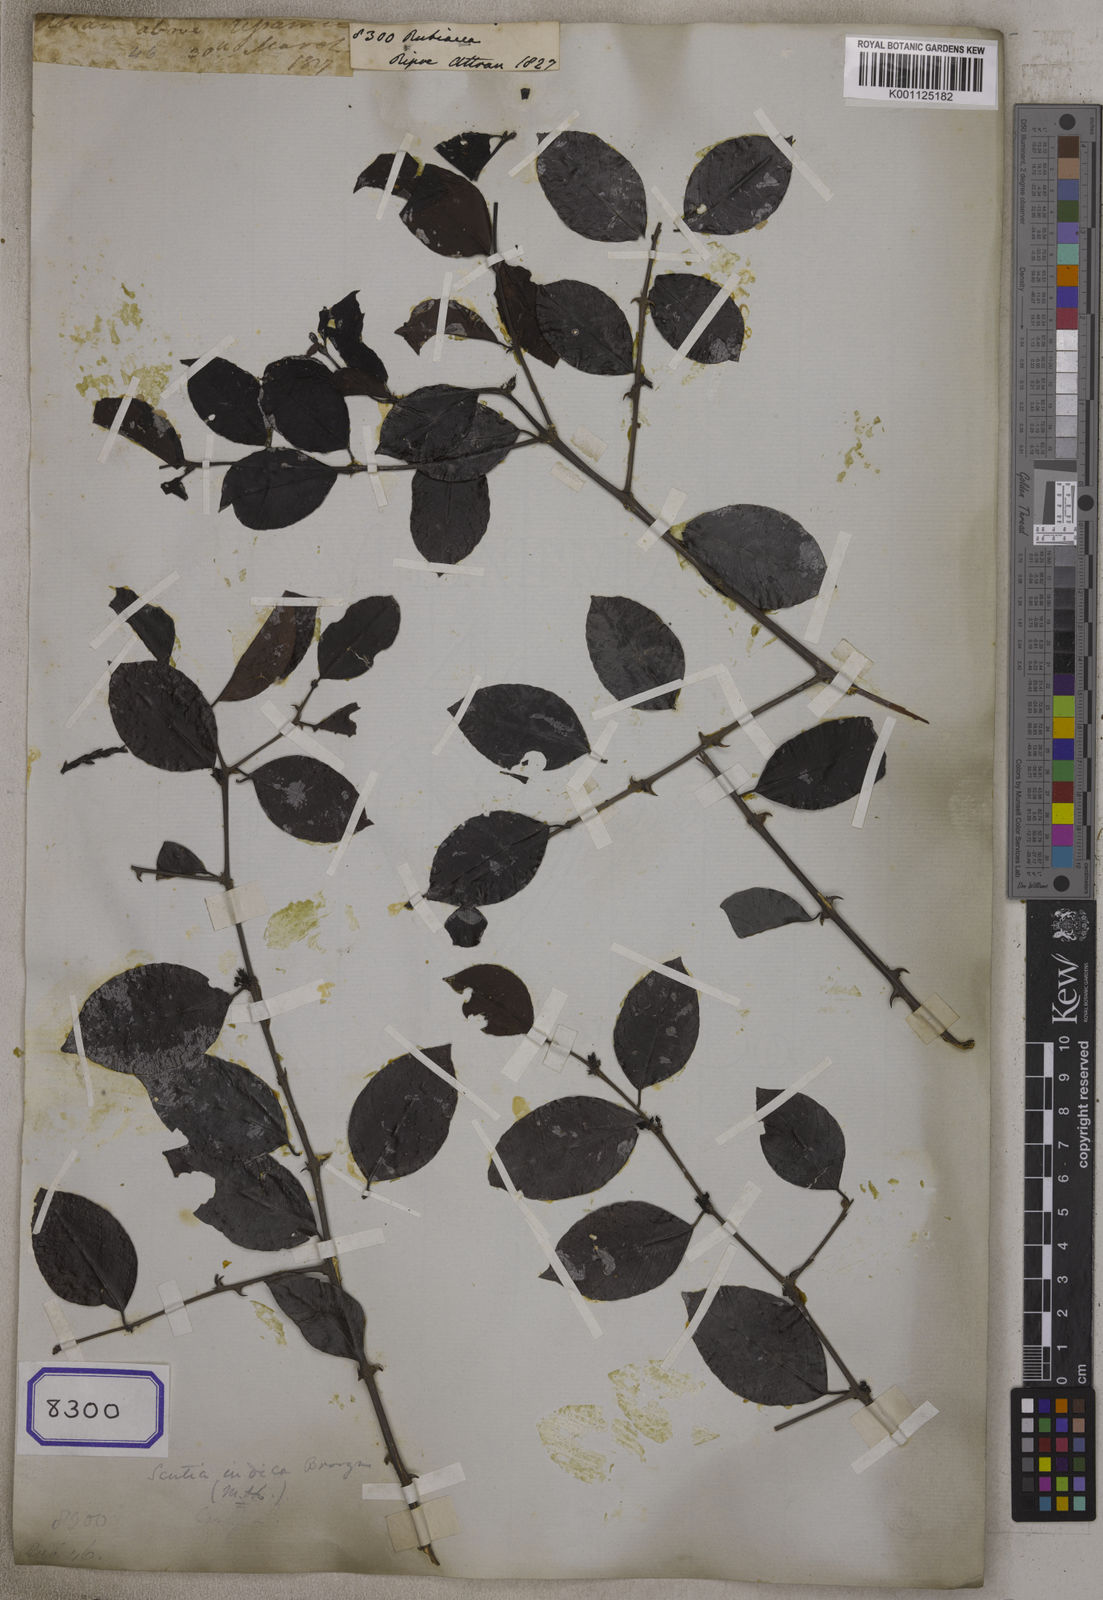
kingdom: Plantae
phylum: Tracheophyta
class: Magnoliopsida
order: Gentianales
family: Rubiaceae
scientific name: Rubiaceae
